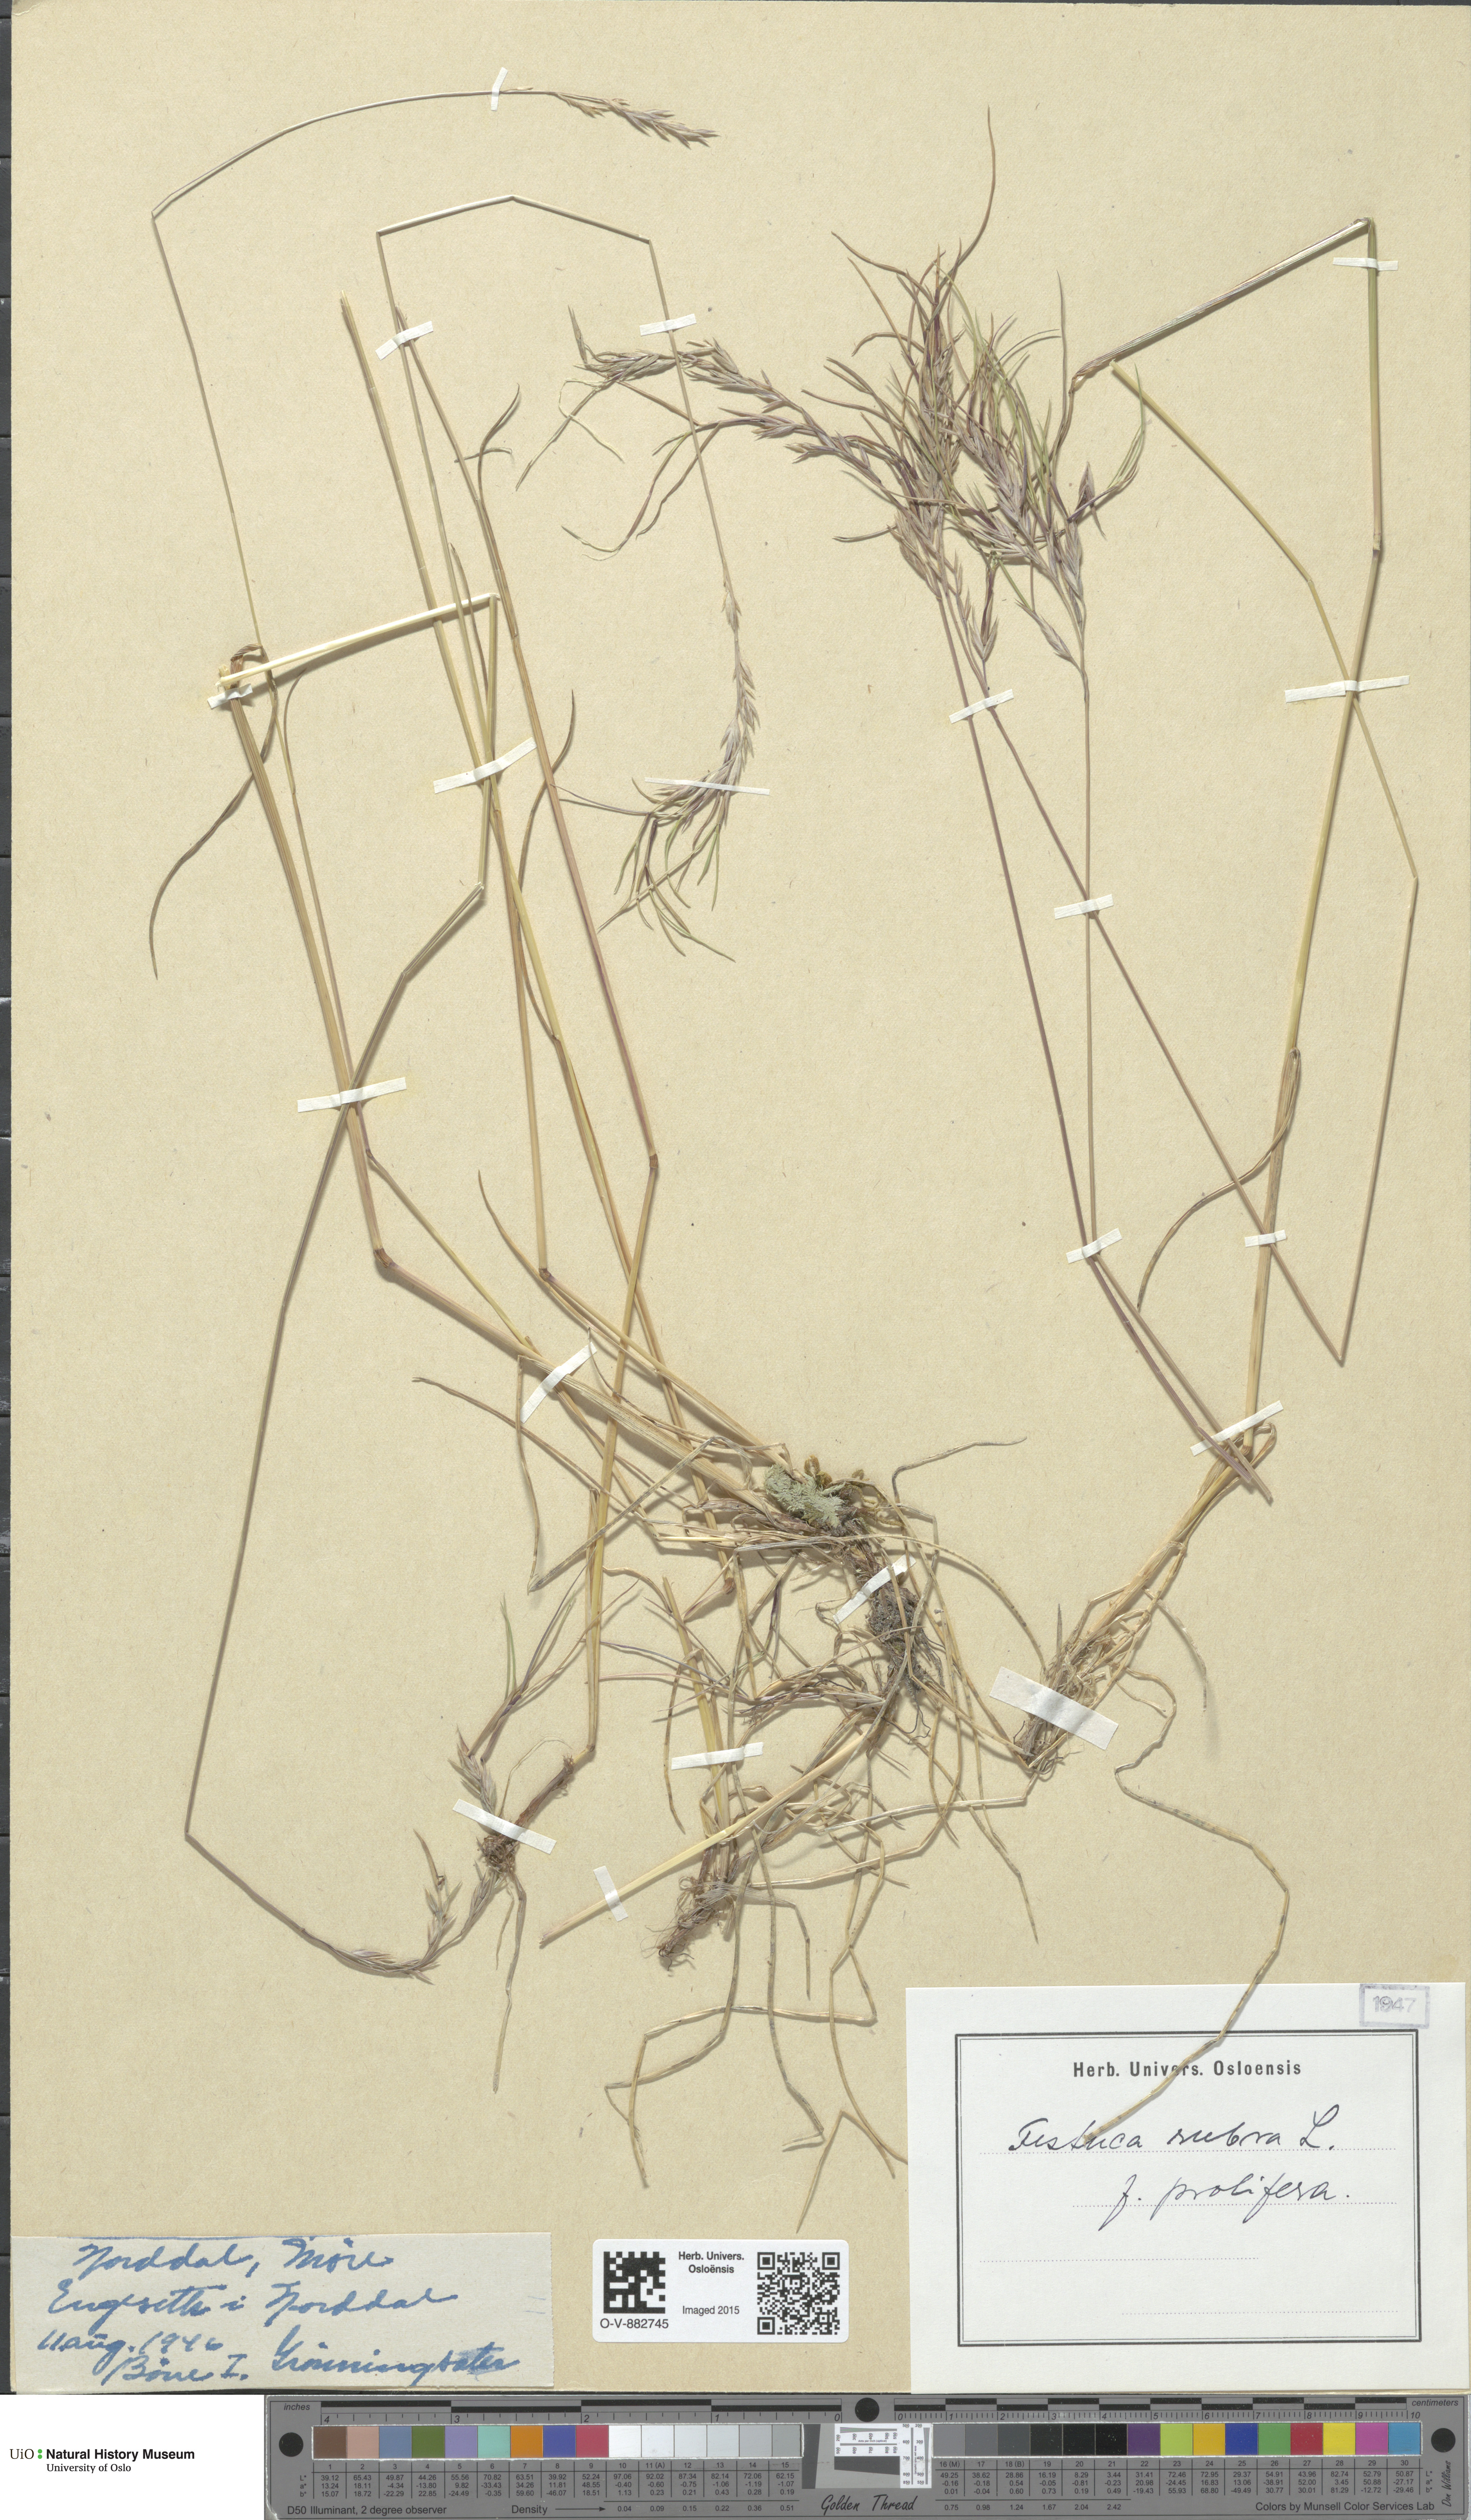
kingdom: Plantae
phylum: Tracheophyta
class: Liliopsida
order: Poales
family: Poaceae
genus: Festuca
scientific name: Festuca prolifera
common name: Proliferous fescue
